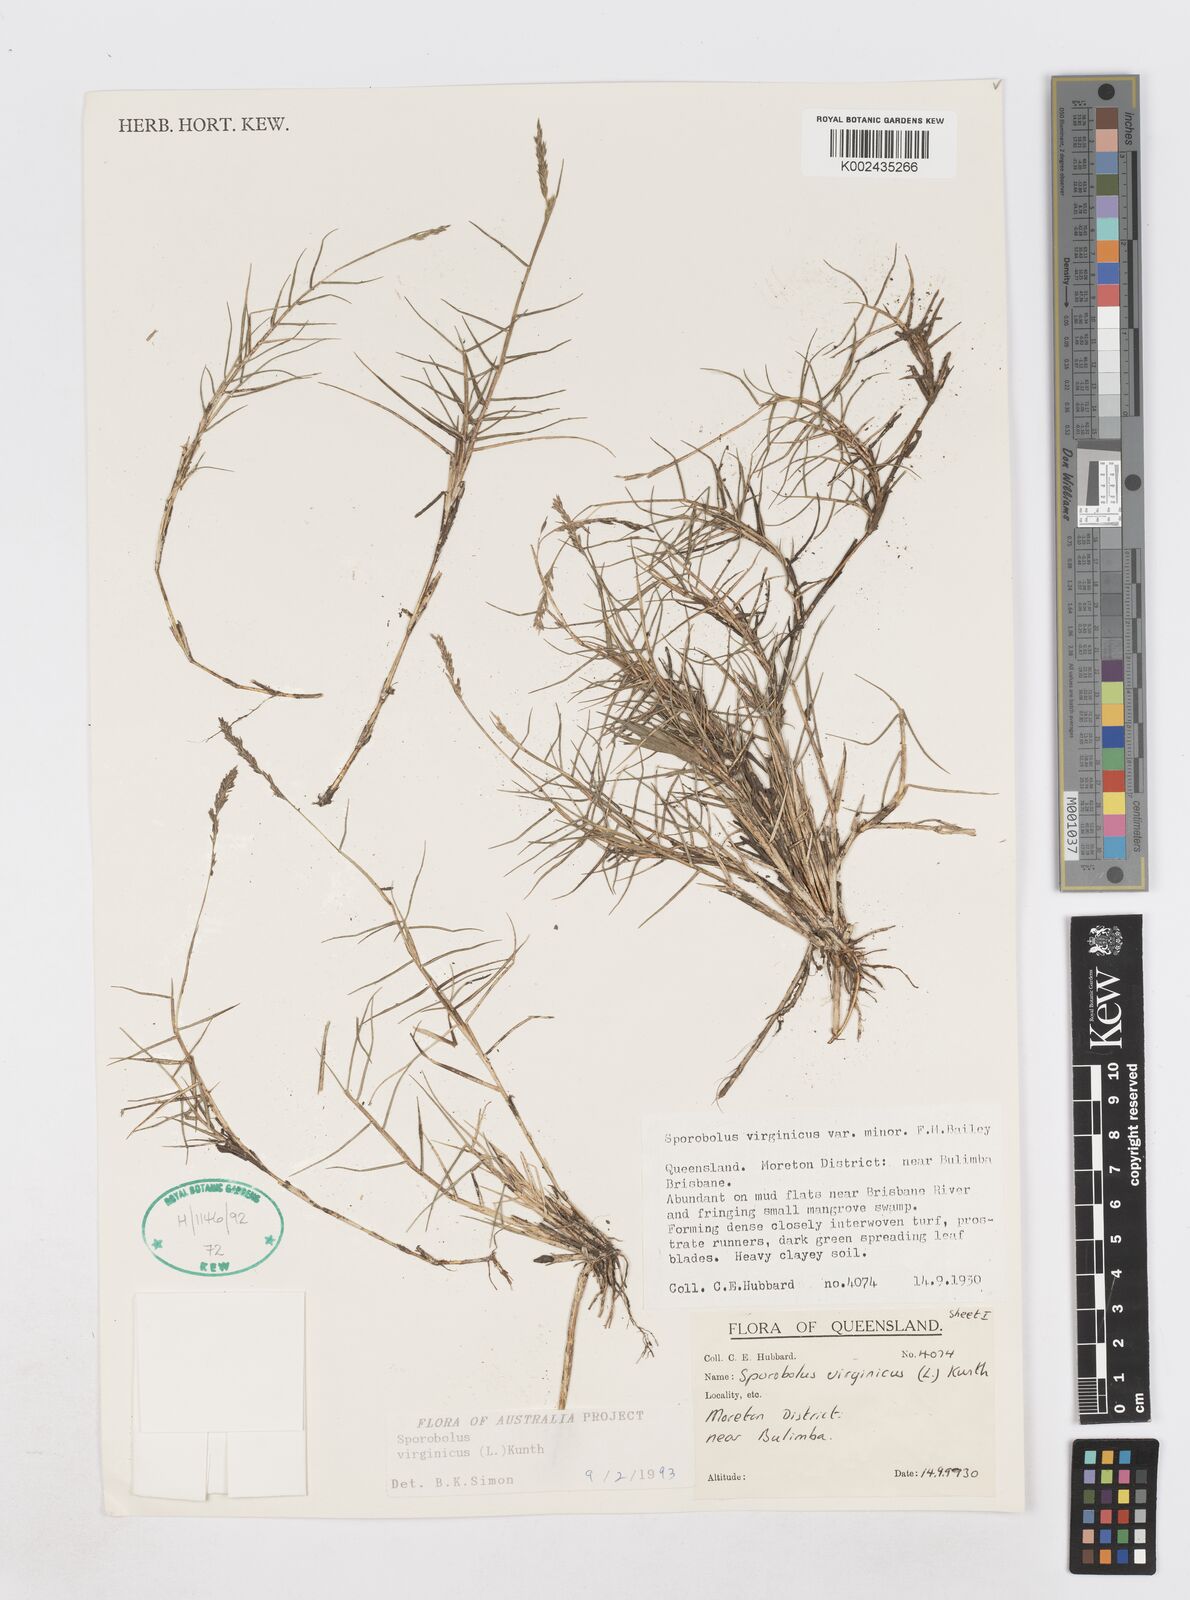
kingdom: Plantae
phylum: Tracheophyta
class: Liliopsida
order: Poales
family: Poaceae
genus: Sporobolus
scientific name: Sporobolus virginicus
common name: Beach dropseed
